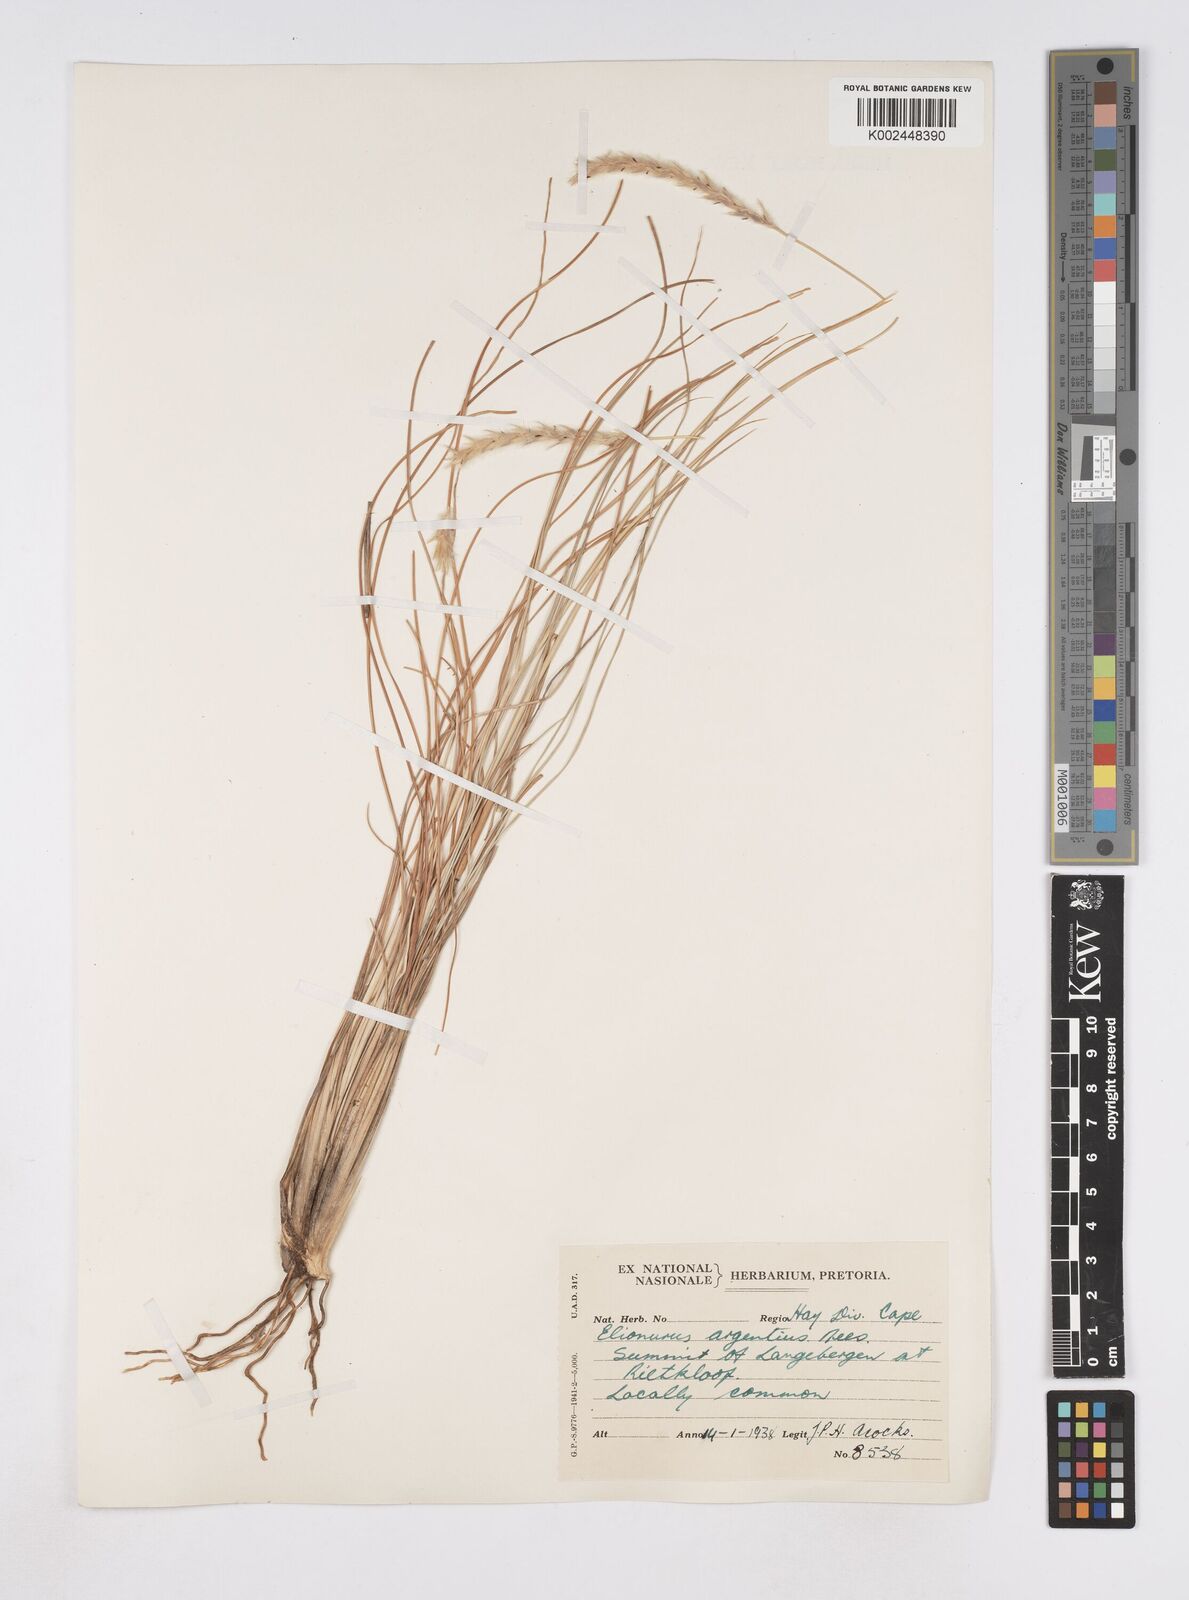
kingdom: Plantae
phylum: Tracheophyta
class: Liliopsida
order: Poales
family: Poaceae
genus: Elionurus
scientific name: Elionurus muticus
